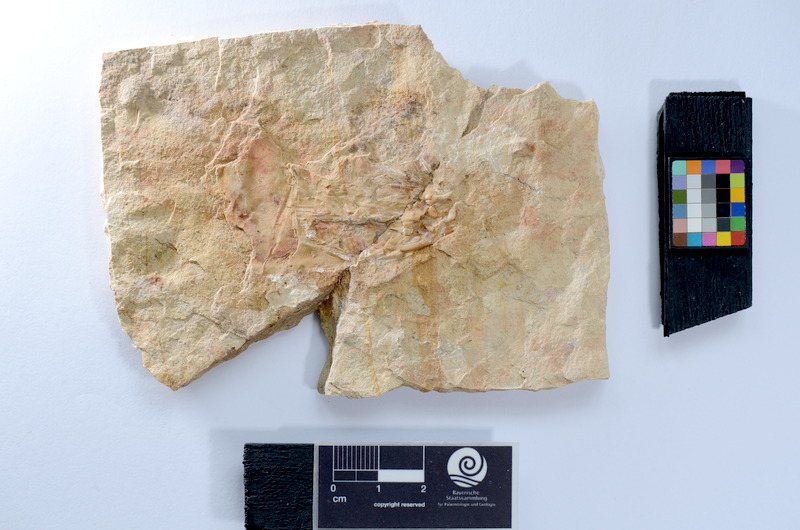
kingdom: Animalia
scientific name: Animalia
